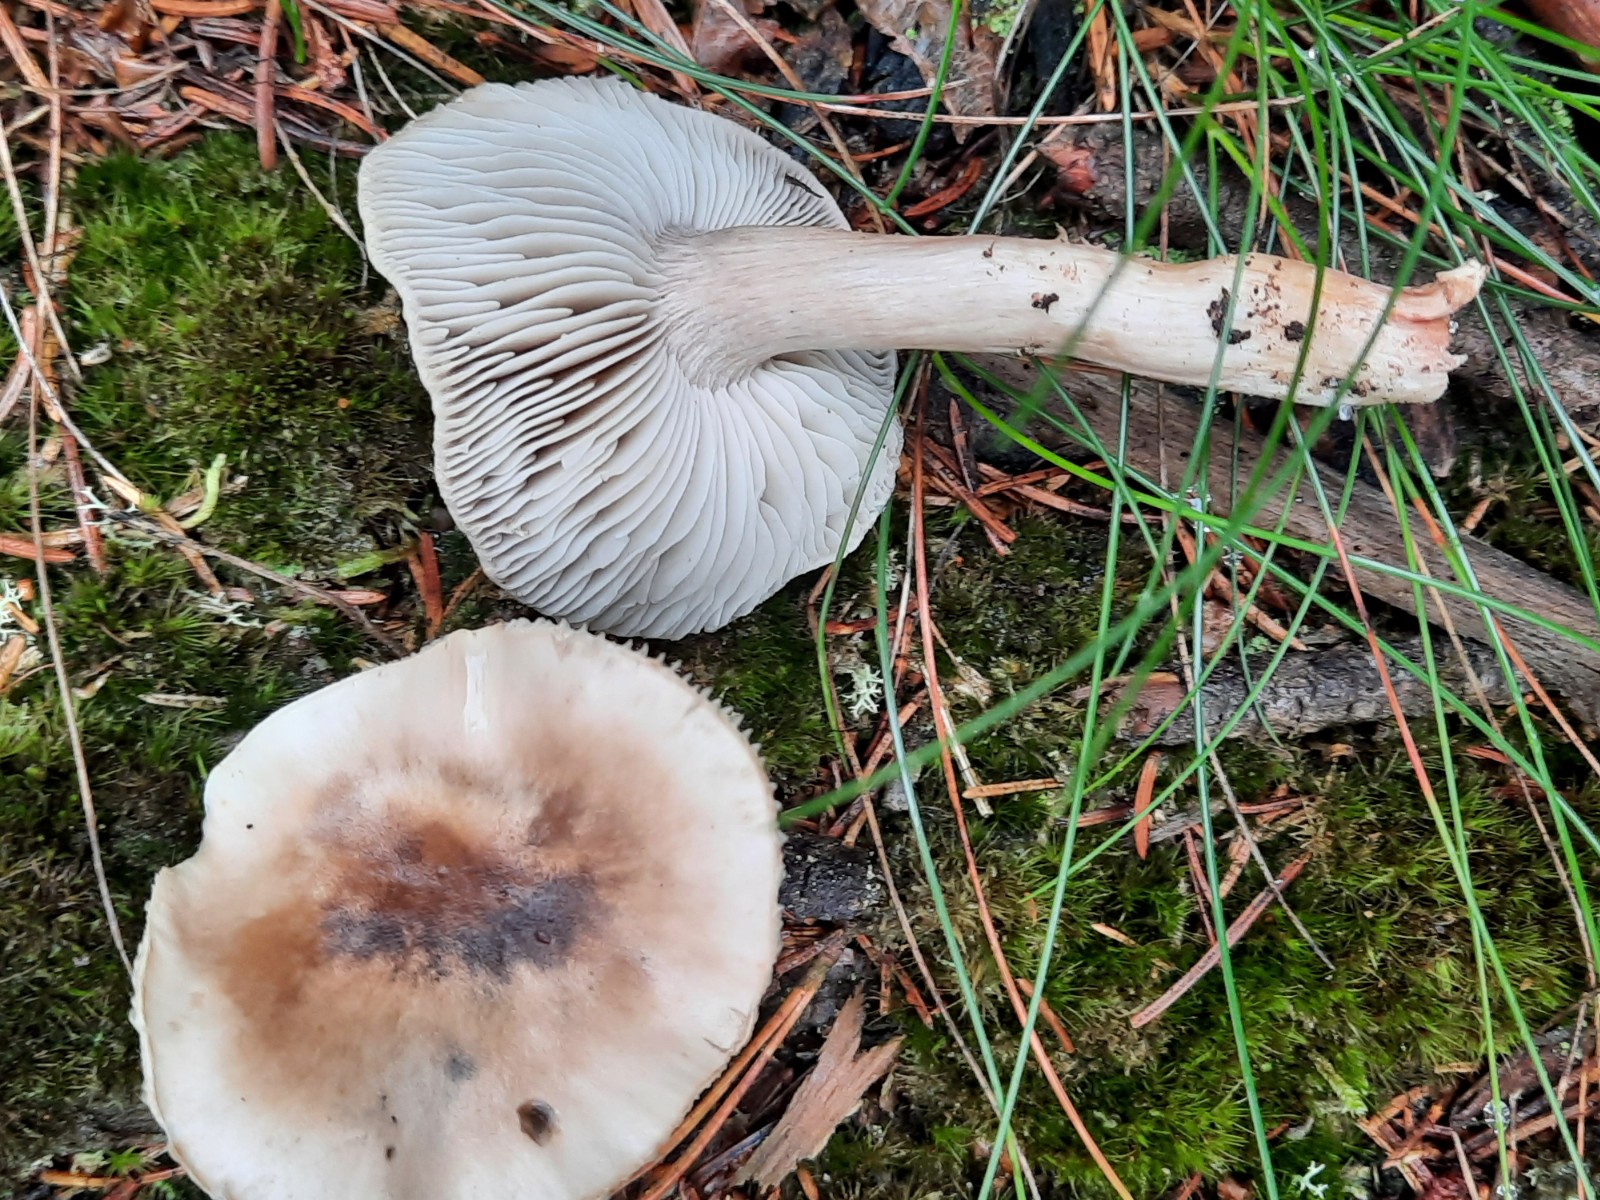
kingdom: Fungi
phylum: Basidiomycota
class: Agaricomycetes
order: Agaricales
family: Tricholomataceae
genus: Tricholoma
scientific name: Tricholoma sudum
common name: tør ridderhat
